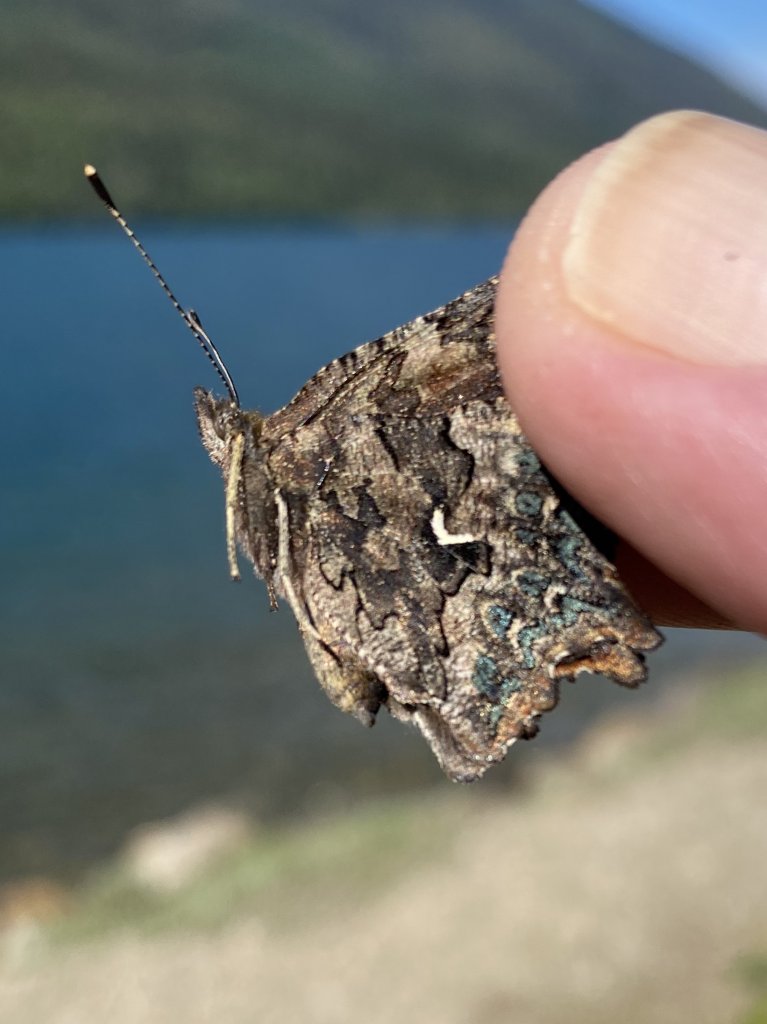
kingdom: Animalia
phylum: Arthropoda
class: Insecta
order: Lepidoptera
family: Nymphalidae
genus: Polygonia
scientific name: Polygonia faunus
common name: Green Comma
